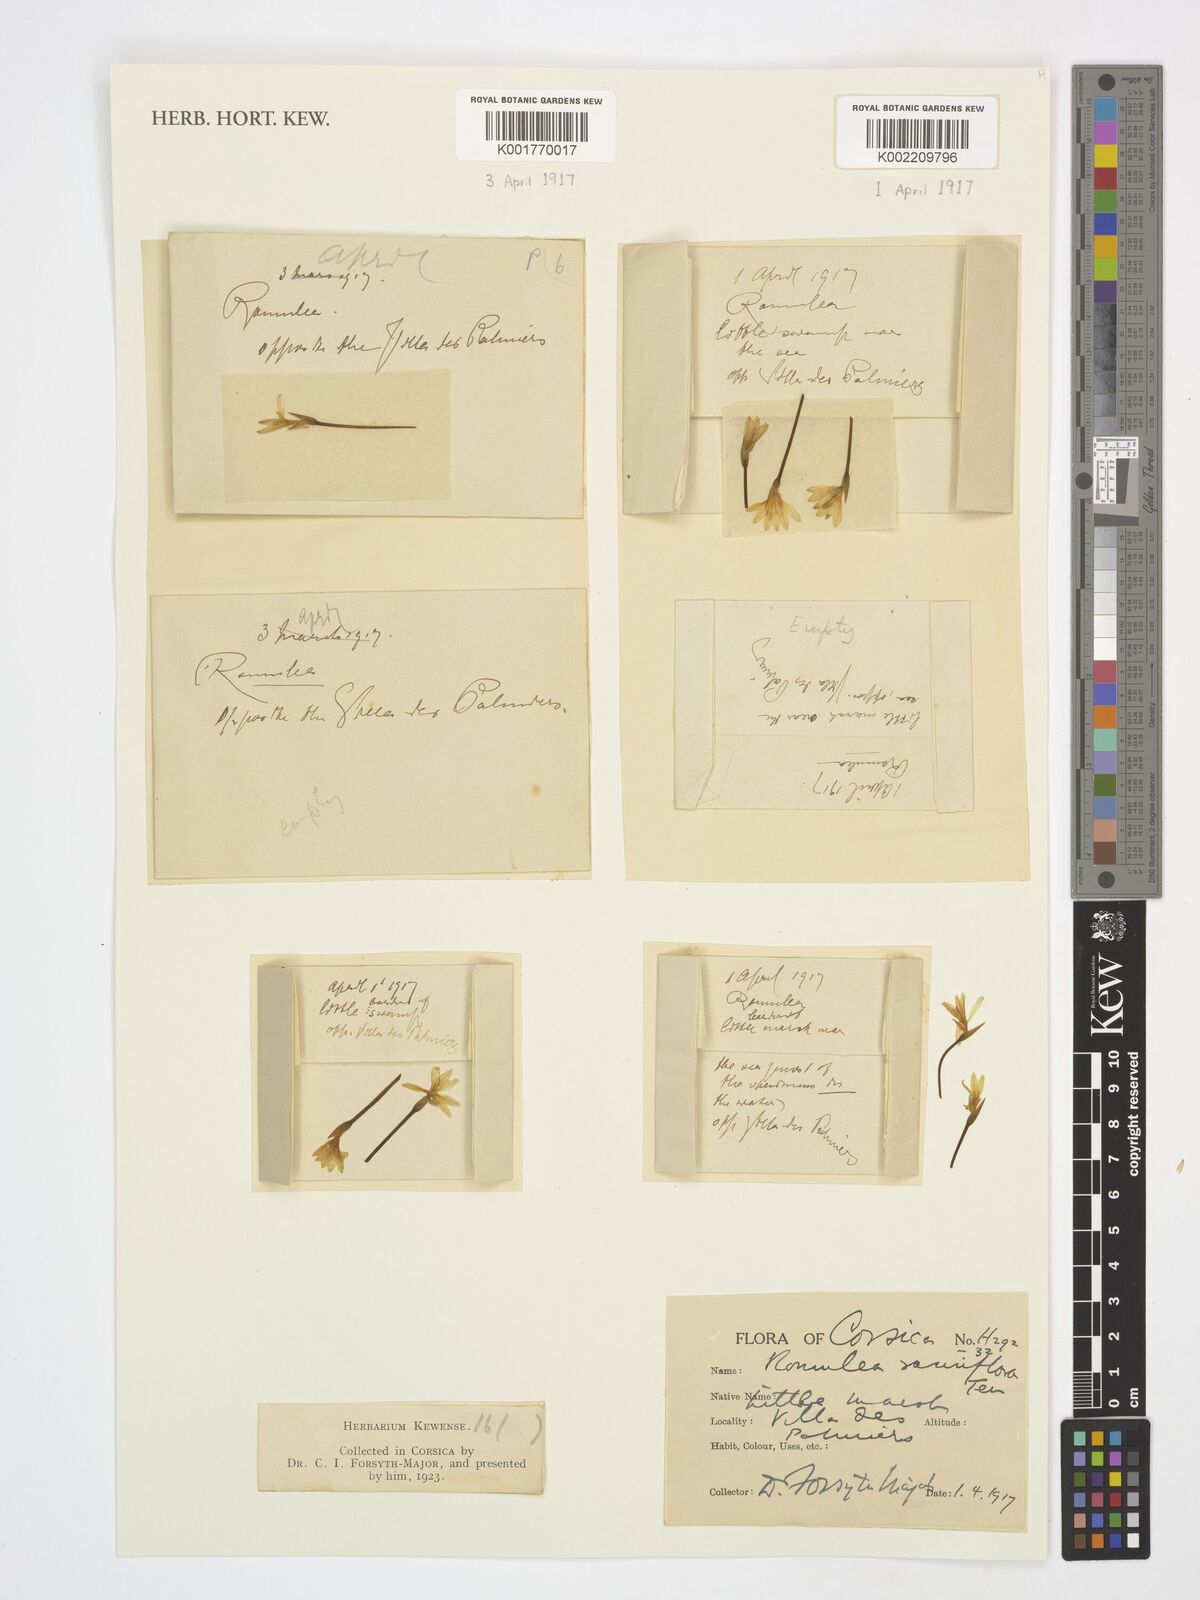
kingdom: Plantae
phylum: Tracheophyta
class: Liliopsida
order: Asparagales
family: Iridaceae
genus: Romulea
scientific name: Romulea columnae
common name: Sand-crocus
